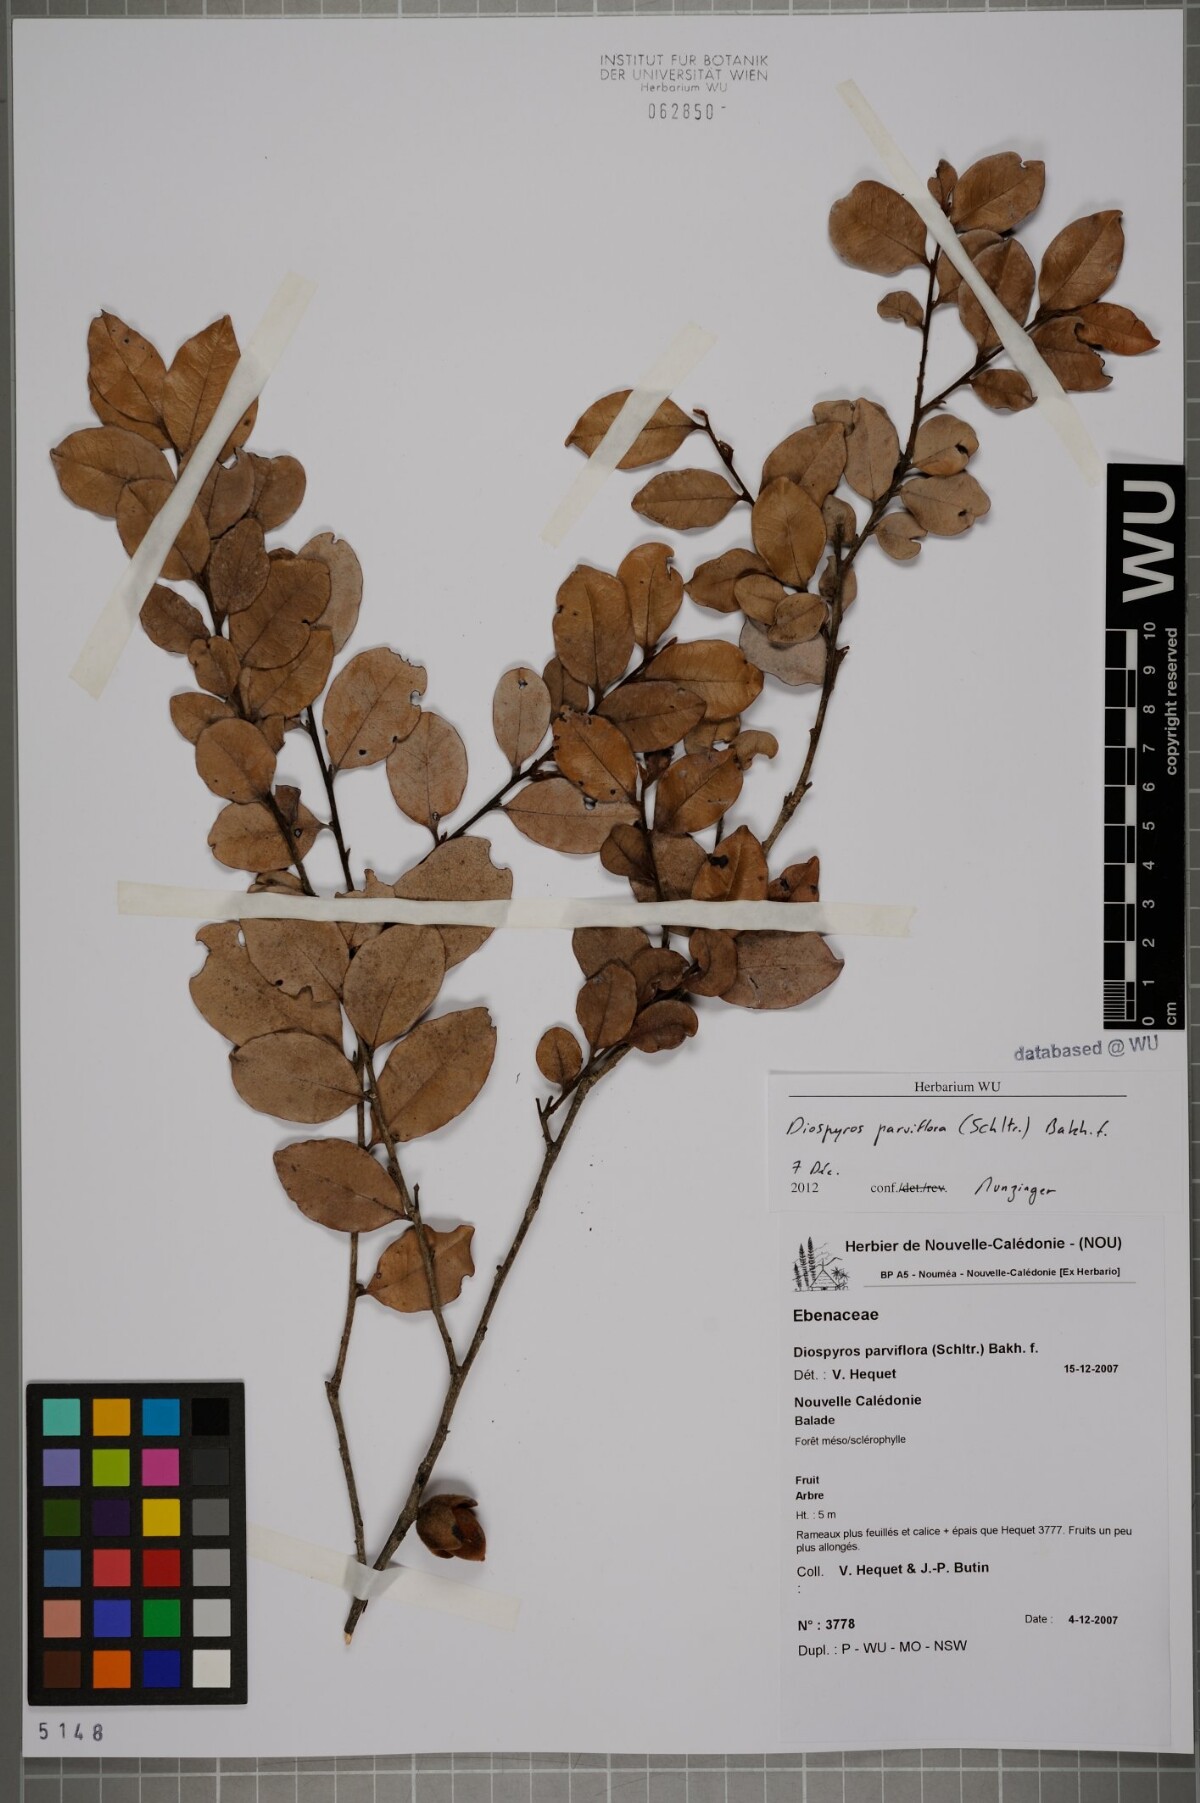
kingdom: Plantae
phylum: Tracheophyta
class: Magnoliopsida
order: Ericales
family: Ebenaceae
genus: Diospyros
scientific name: Diospyros parviflora
